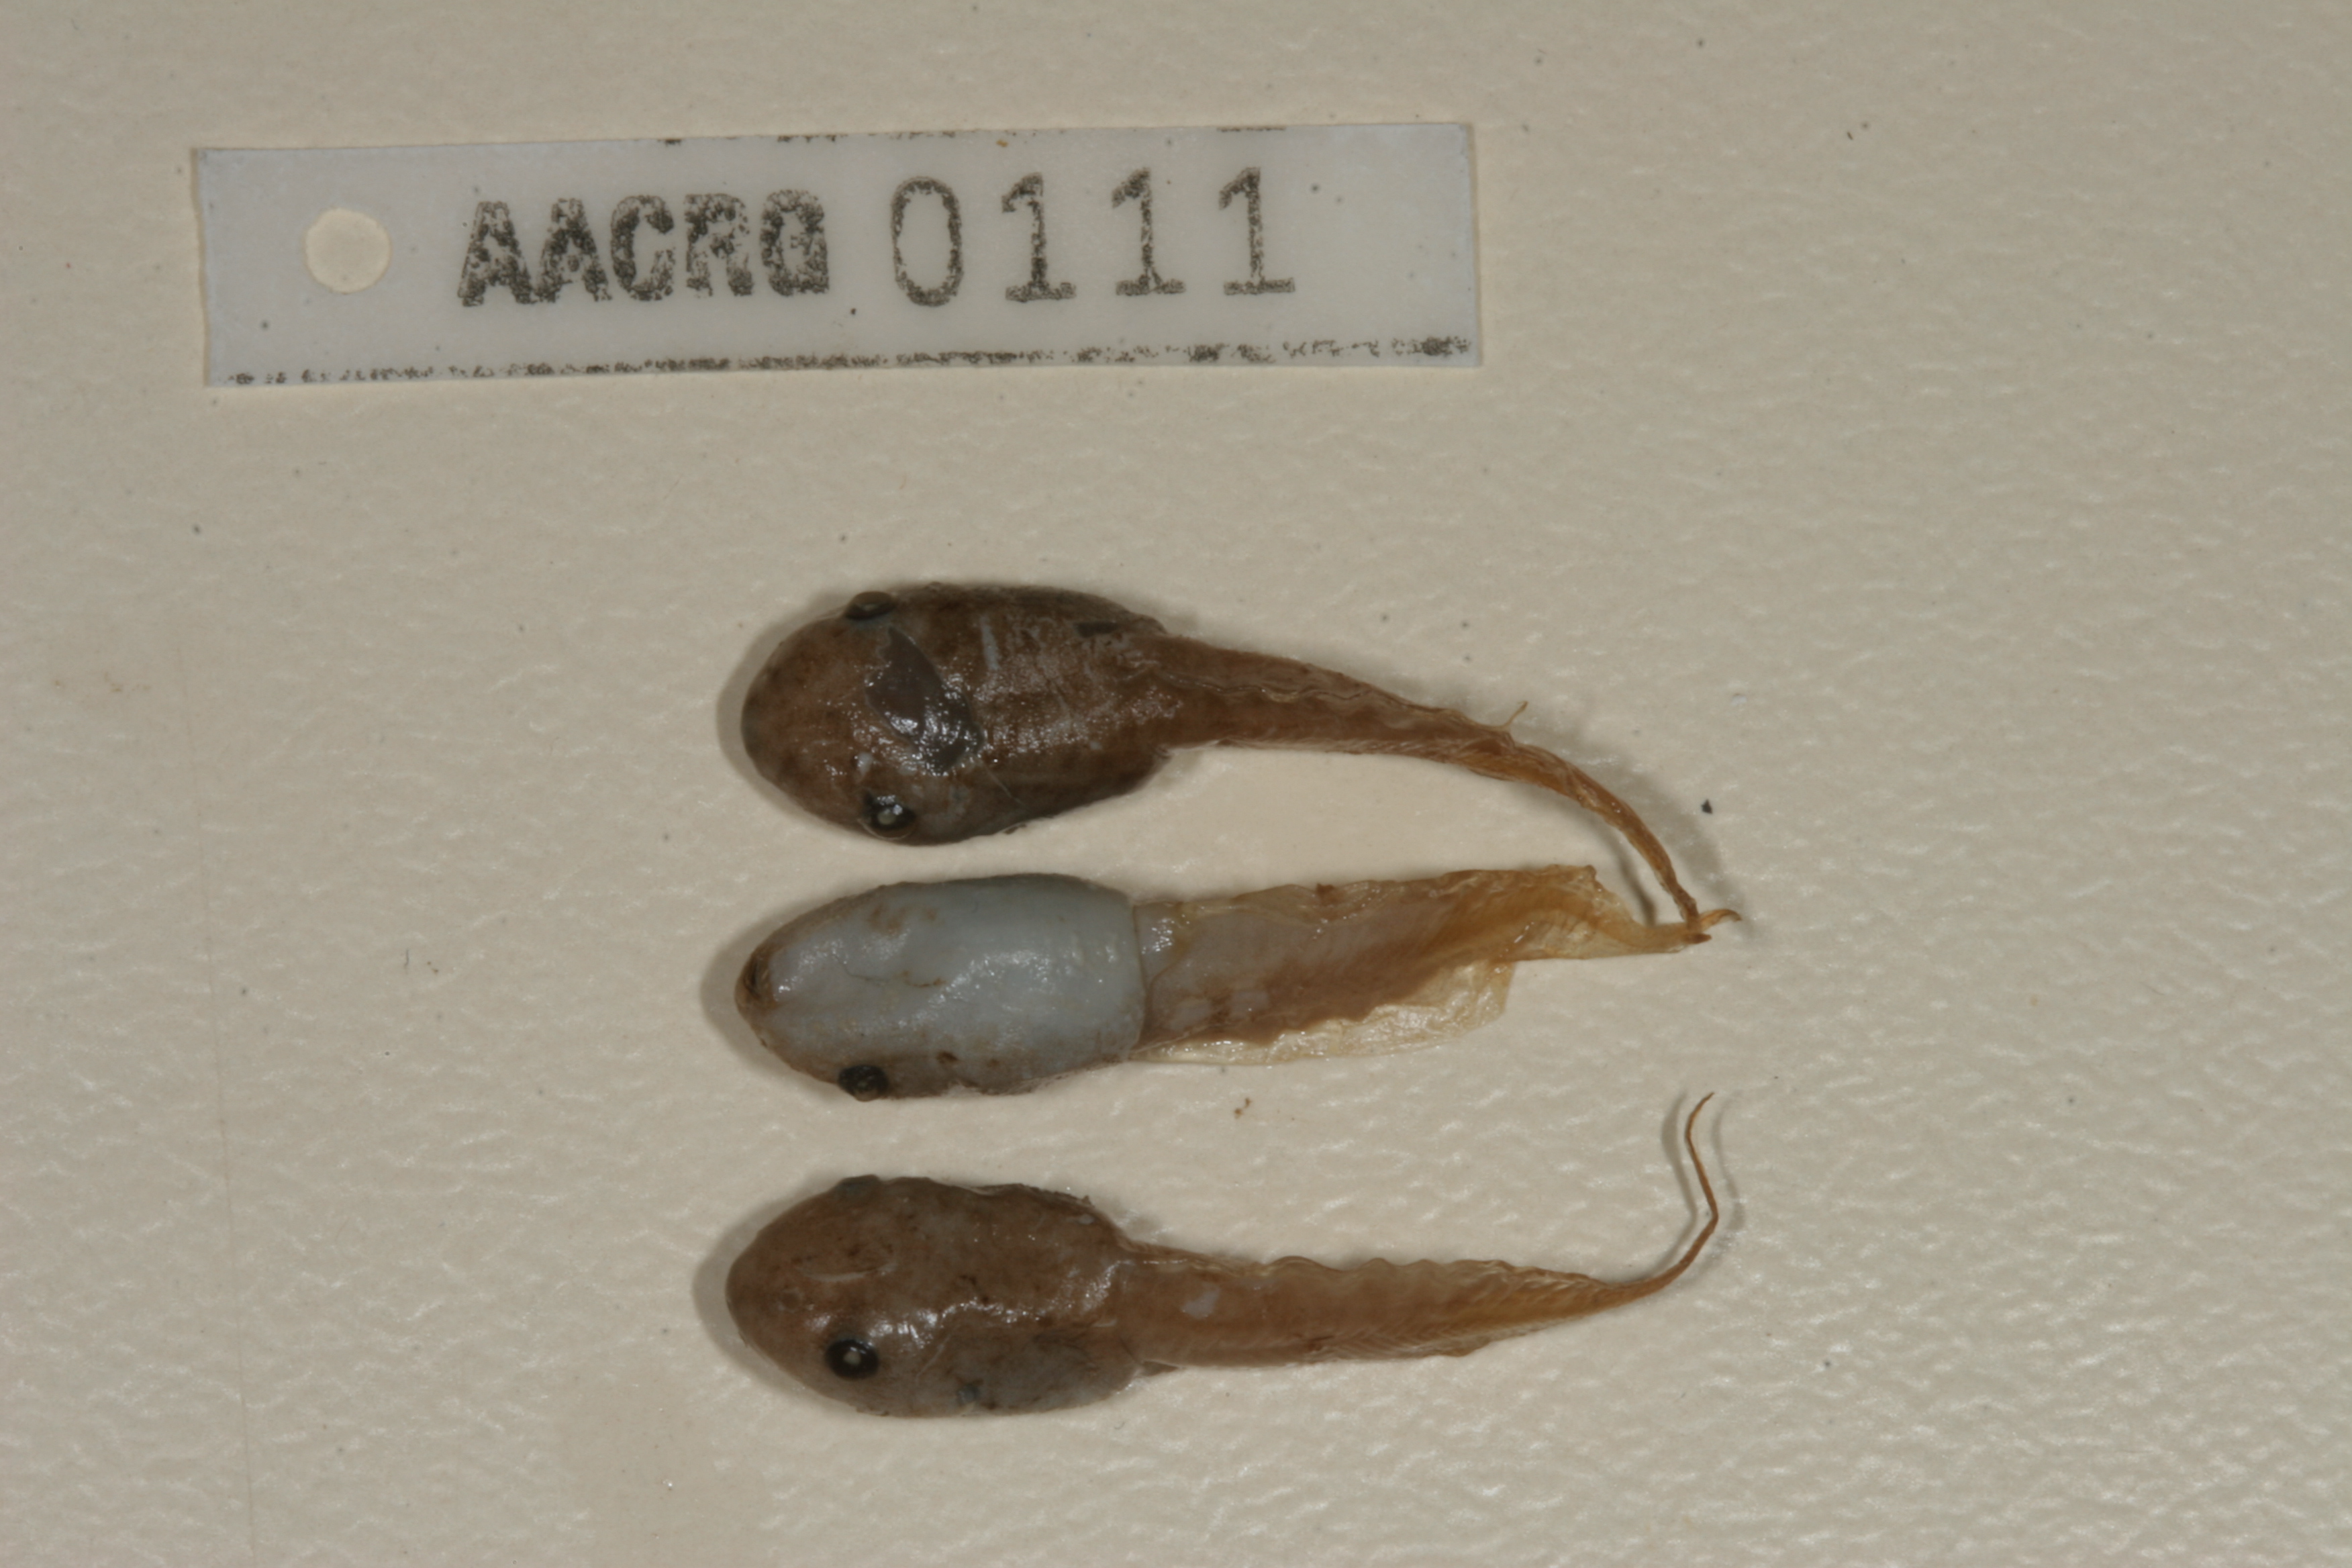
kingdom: Animalia
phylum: Chordata
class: Amphibia
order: Anura
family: Hemisotidae
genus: Hemisus
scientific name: Hemisus marmoratus
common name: Mottled shovel-nosed frog
